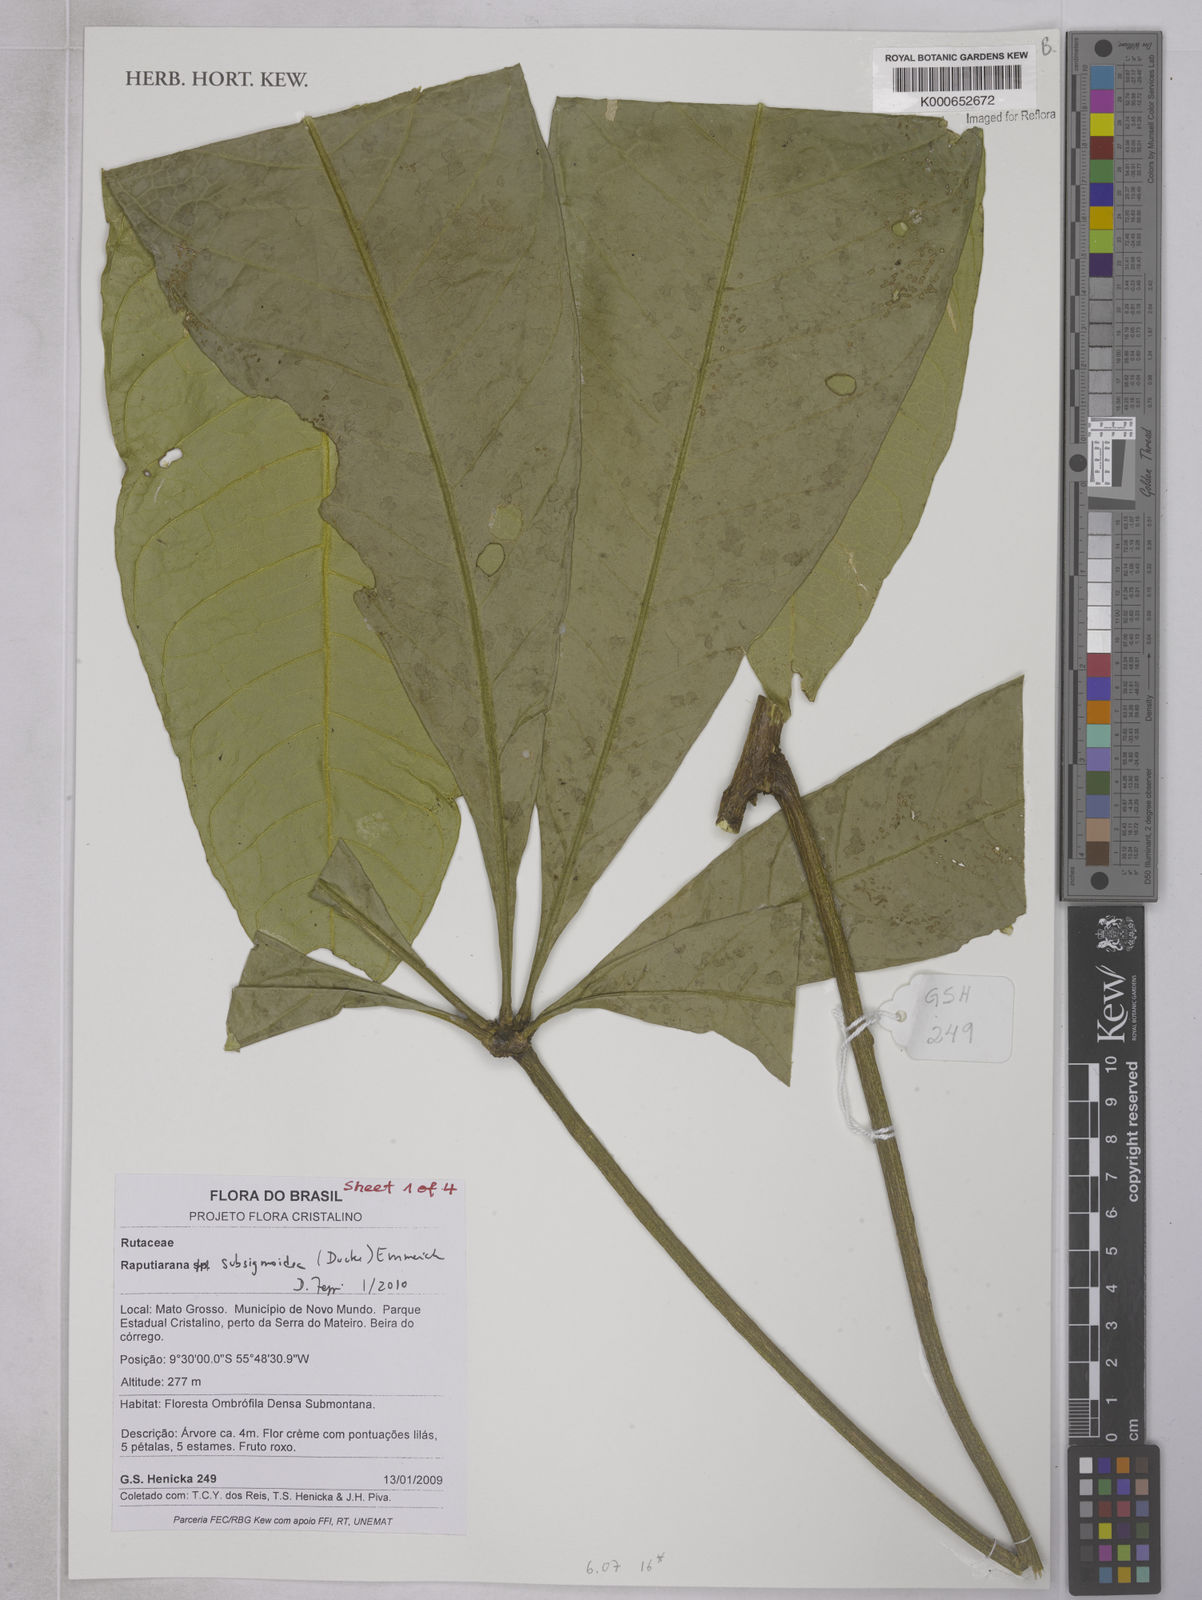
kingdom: Plantae
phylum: Tracheophyta
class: Magnoliopsida
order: Sapindales
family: Rutaceae
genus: Raputiarana
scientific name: Raputiarana subsigmoidea
